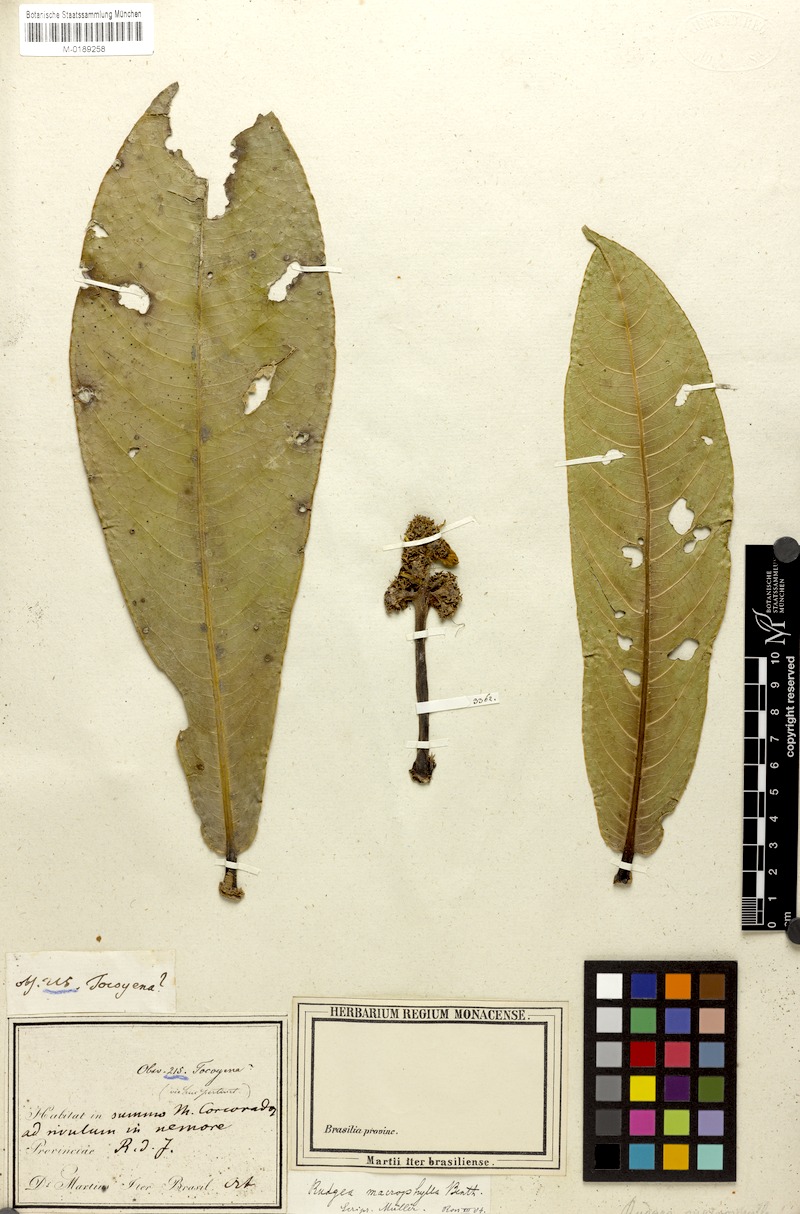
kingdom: Plantae
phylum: Tracheophyta
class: Magnoliopsida
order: Gentianales
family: Rubiaceae
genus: Rudgea
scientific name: Rudgea macrophylla
